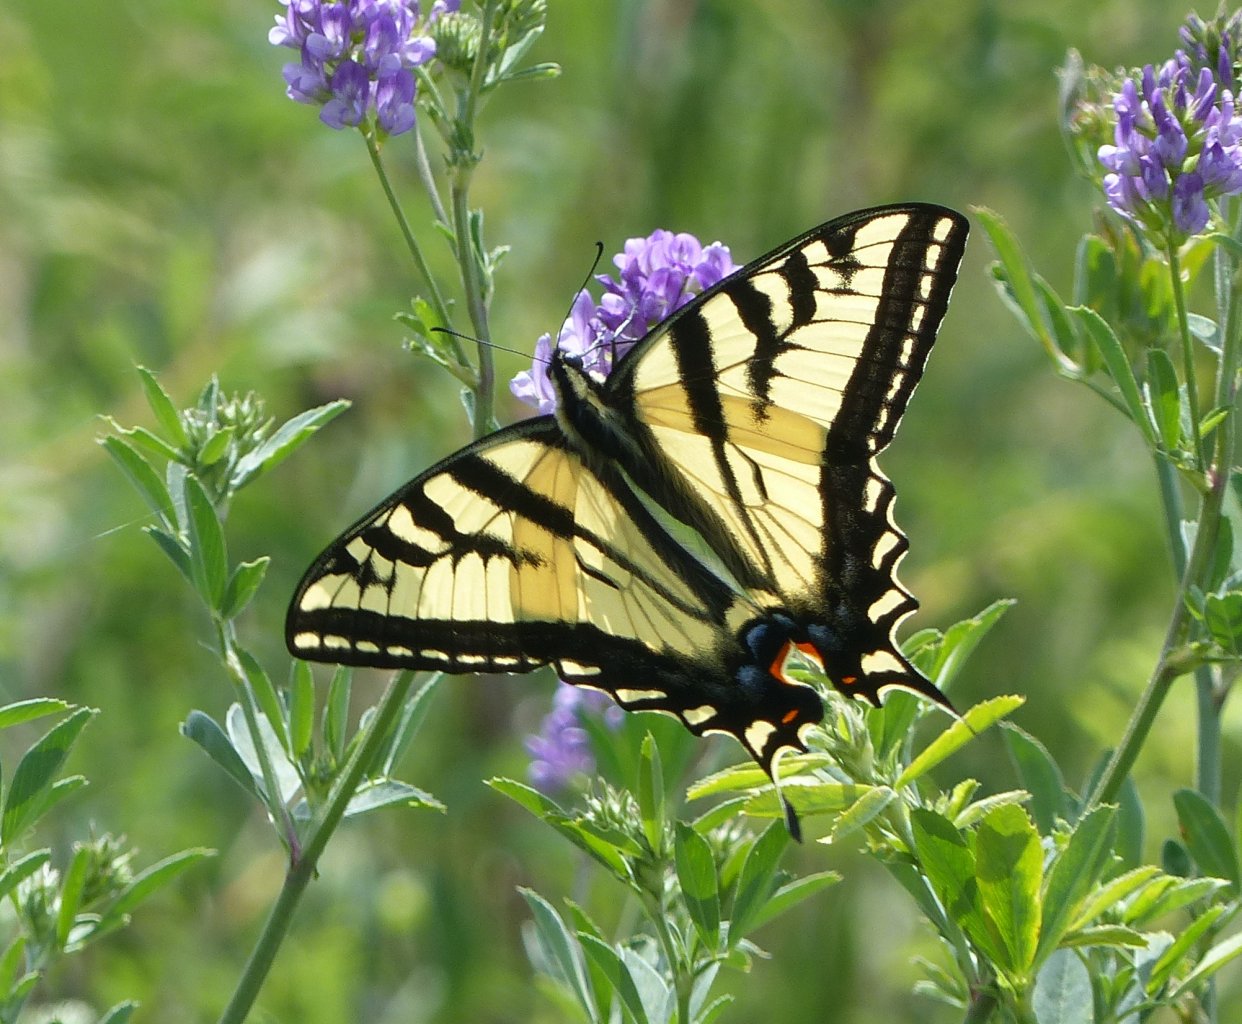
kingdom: Animalia
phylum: Arthropoda
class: Insecta
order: Lepidoptera
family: Papilionidae
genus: Pterourus
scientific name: Pterourus rutulus
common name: Western Tiger Swallowtail
